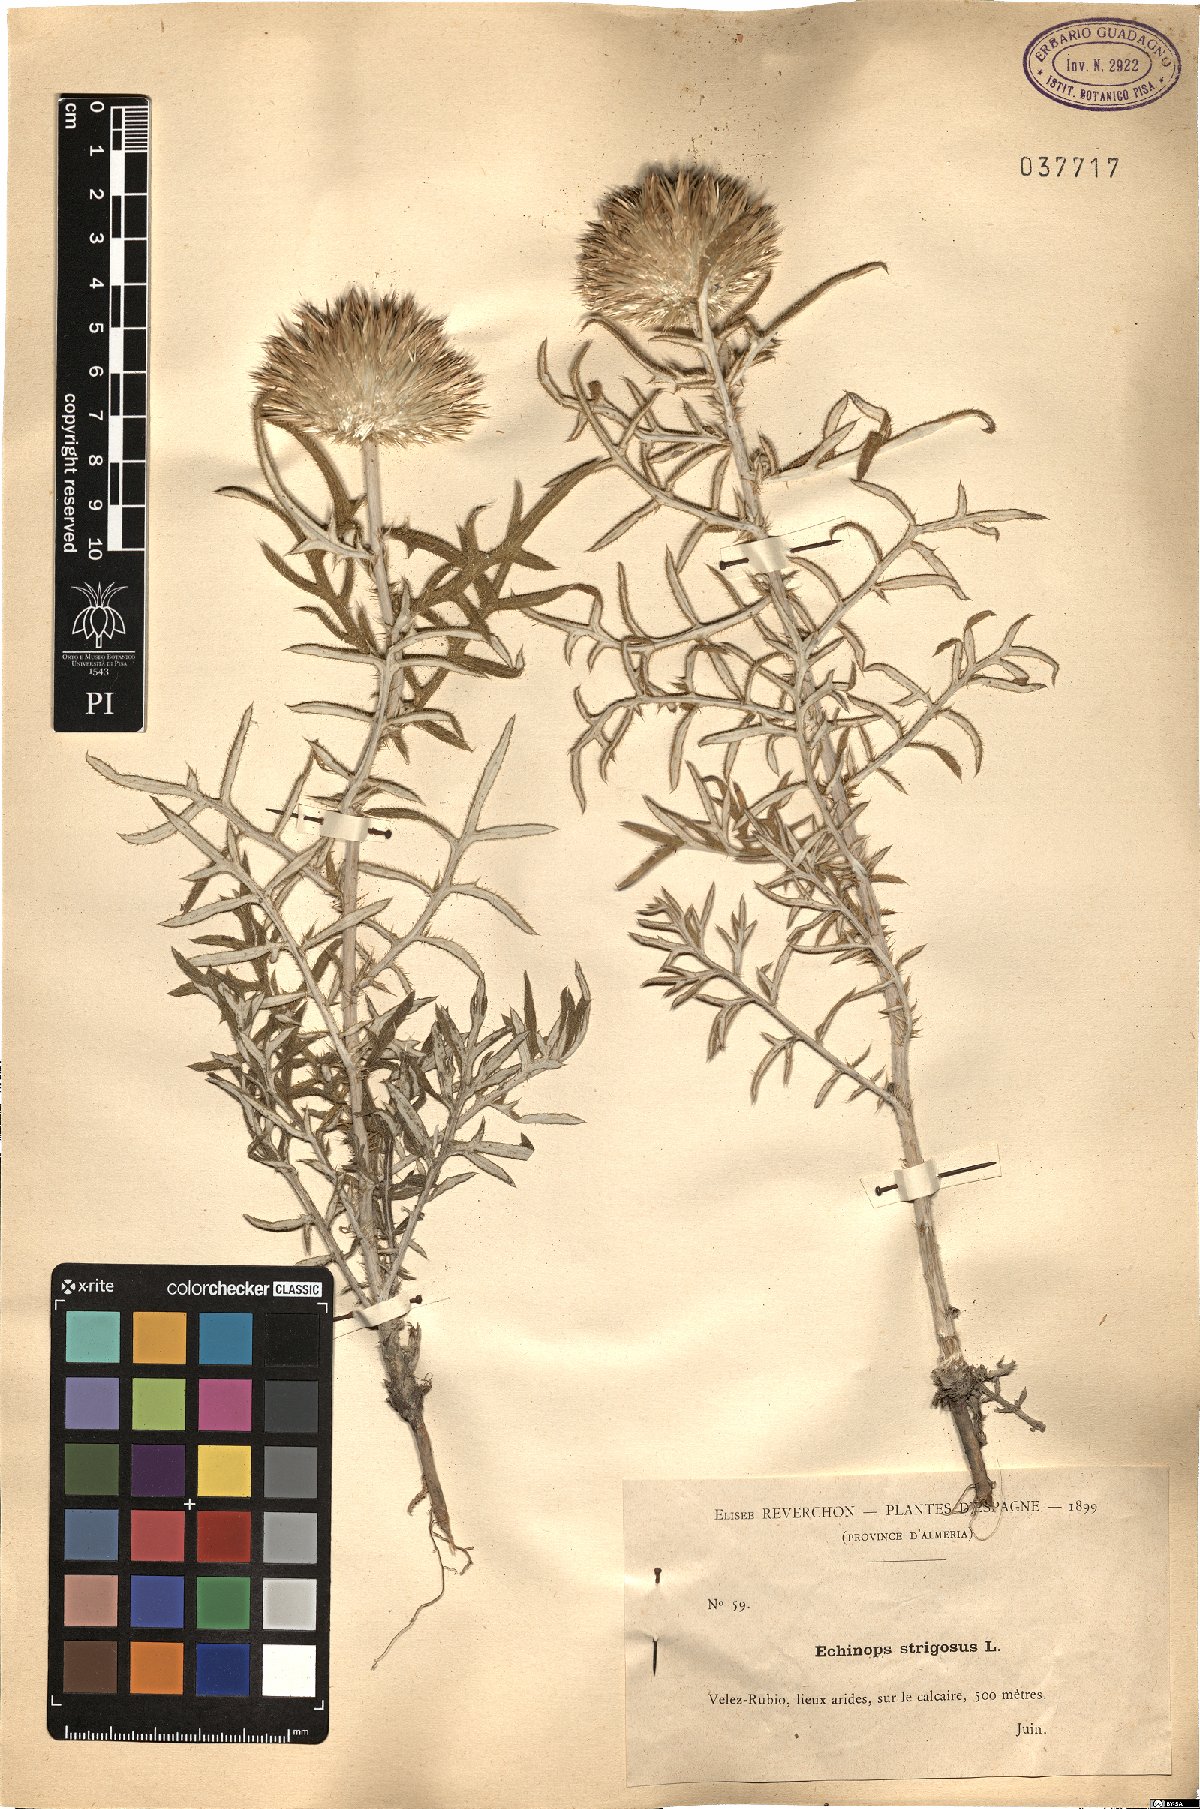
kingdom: Plantae
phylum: Tracheophyta
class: Magnoliopsida
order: Asterales
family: Asteraceae
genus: Echinops
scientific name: Echinops strigosus
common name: Rough-leaf globe thistle
